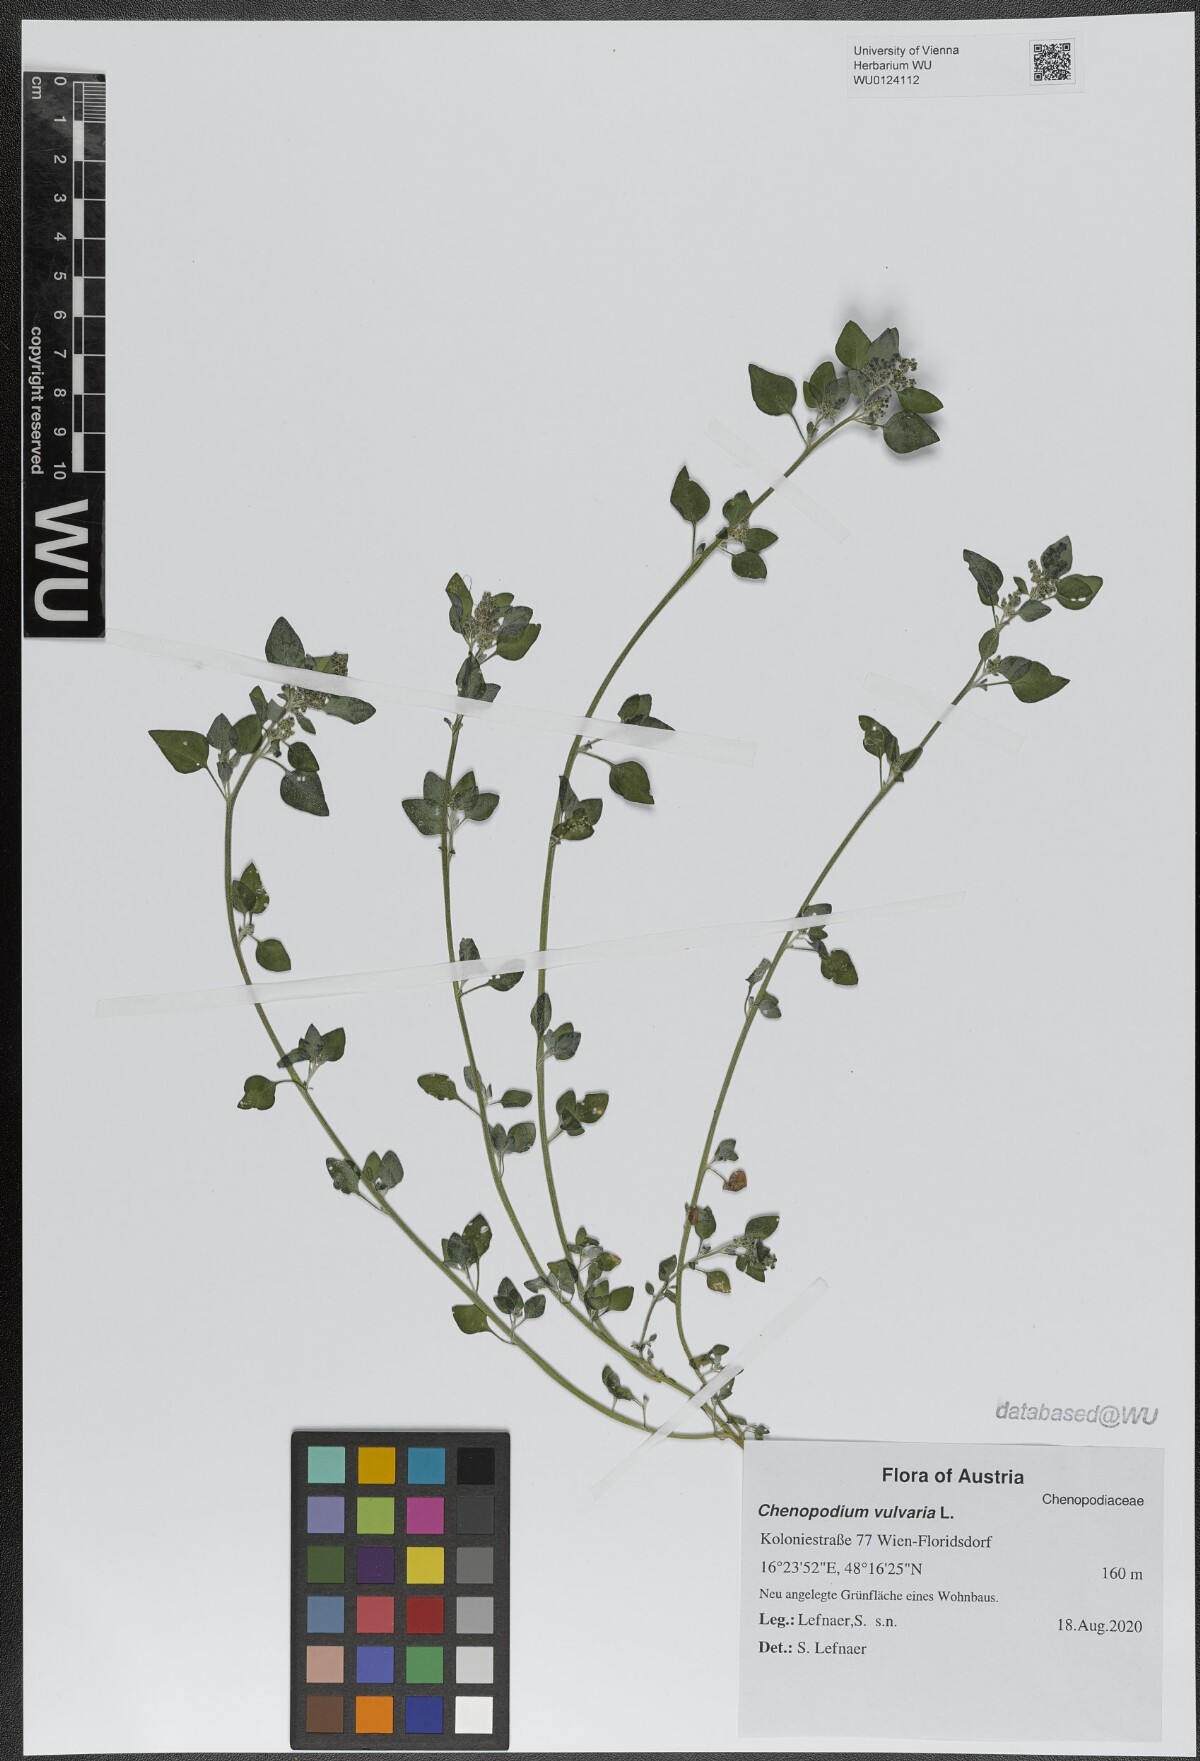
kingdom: Plantae
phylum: Tracheophyta
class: Magnoliopsida
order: Caryophyllales
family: Amaranthaceae
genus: Chenopodium
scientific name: Chenopodium vulvaria
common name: Stinking goosefoot
